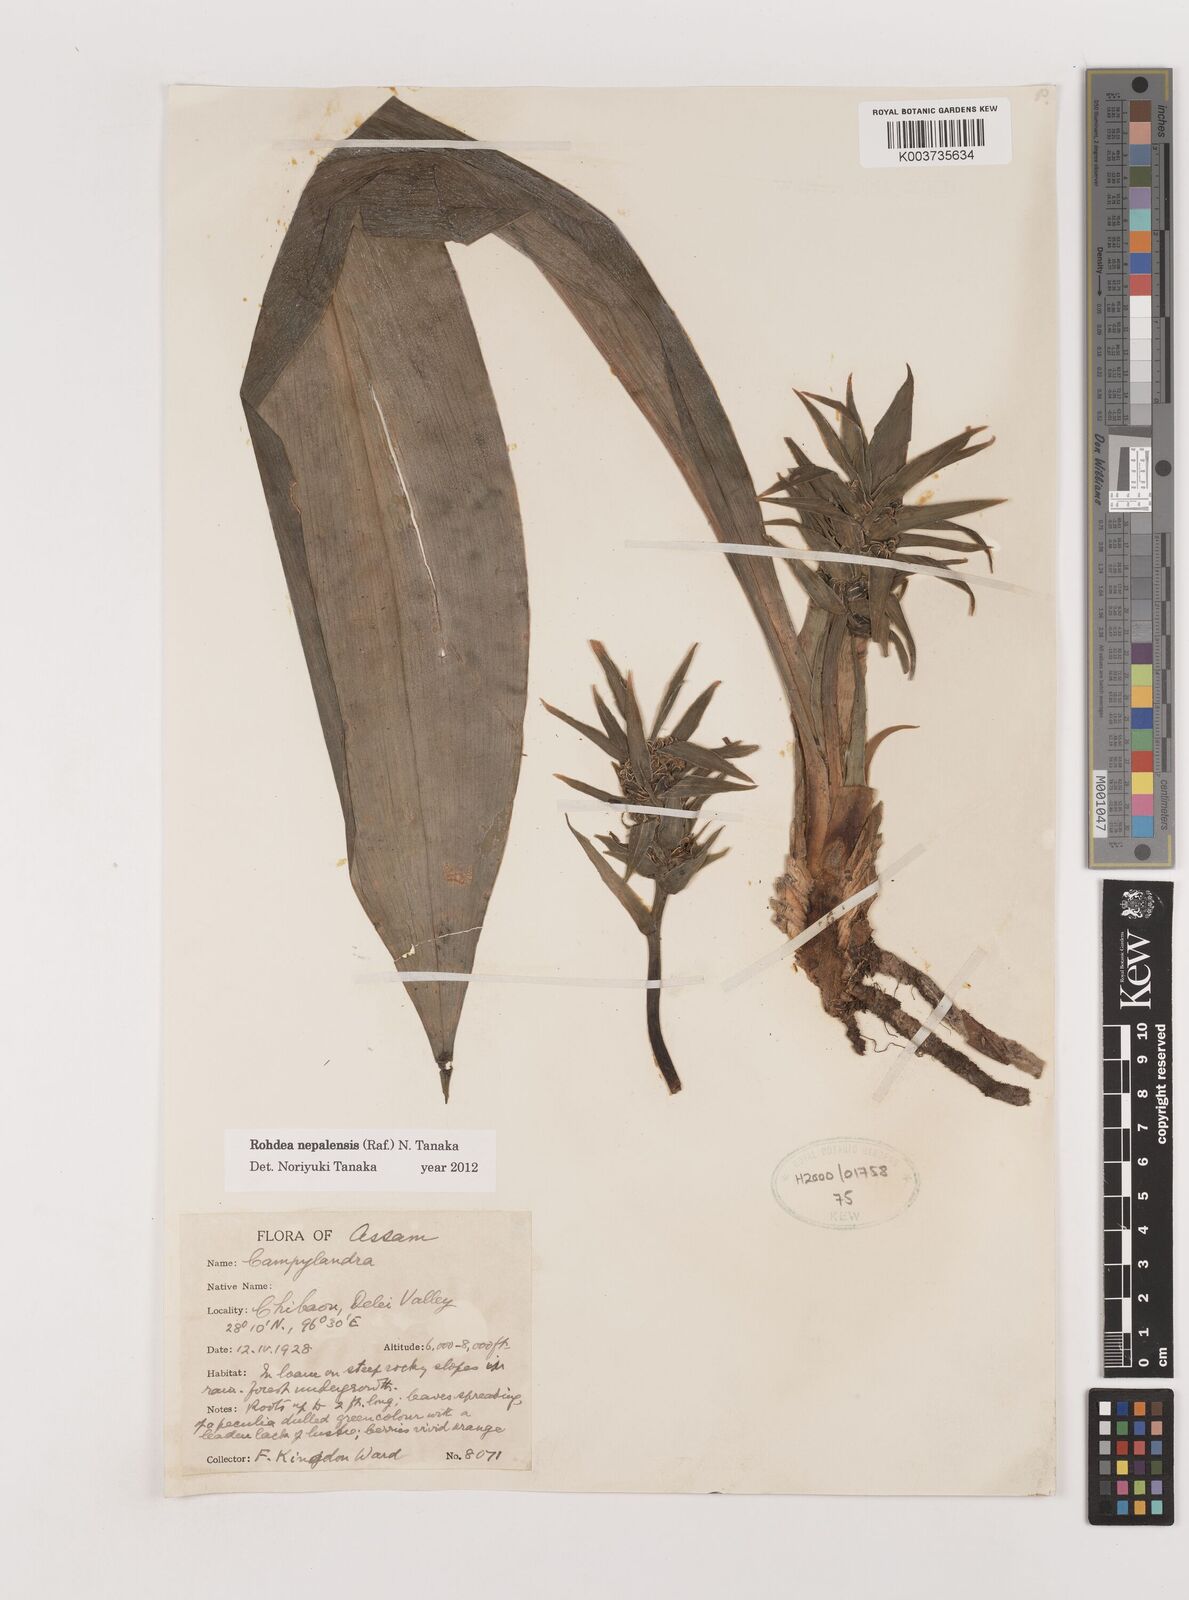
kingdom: Plantae
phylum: Tracheophyta
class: Liliopsida
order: Asparagales
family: Asparagaceae
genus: Rohdea
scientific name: Rohdea nepalensis
